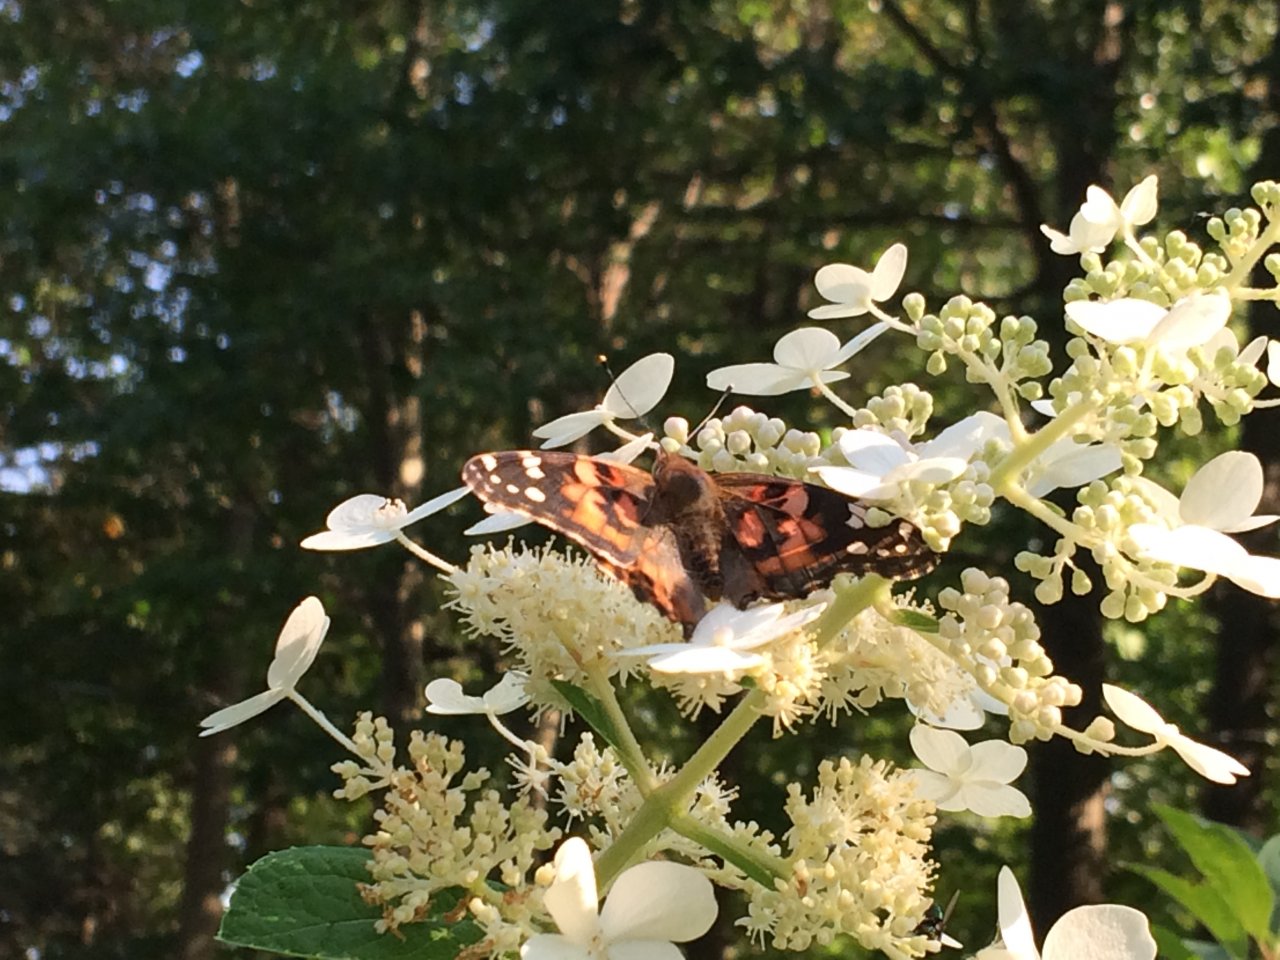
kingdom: Animalia
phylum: Arthropoda
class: Insecta
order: Lepidoptera
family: Nymphalidae
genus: Vanessa
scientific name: Vanessa cardui
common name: Painted Lady
